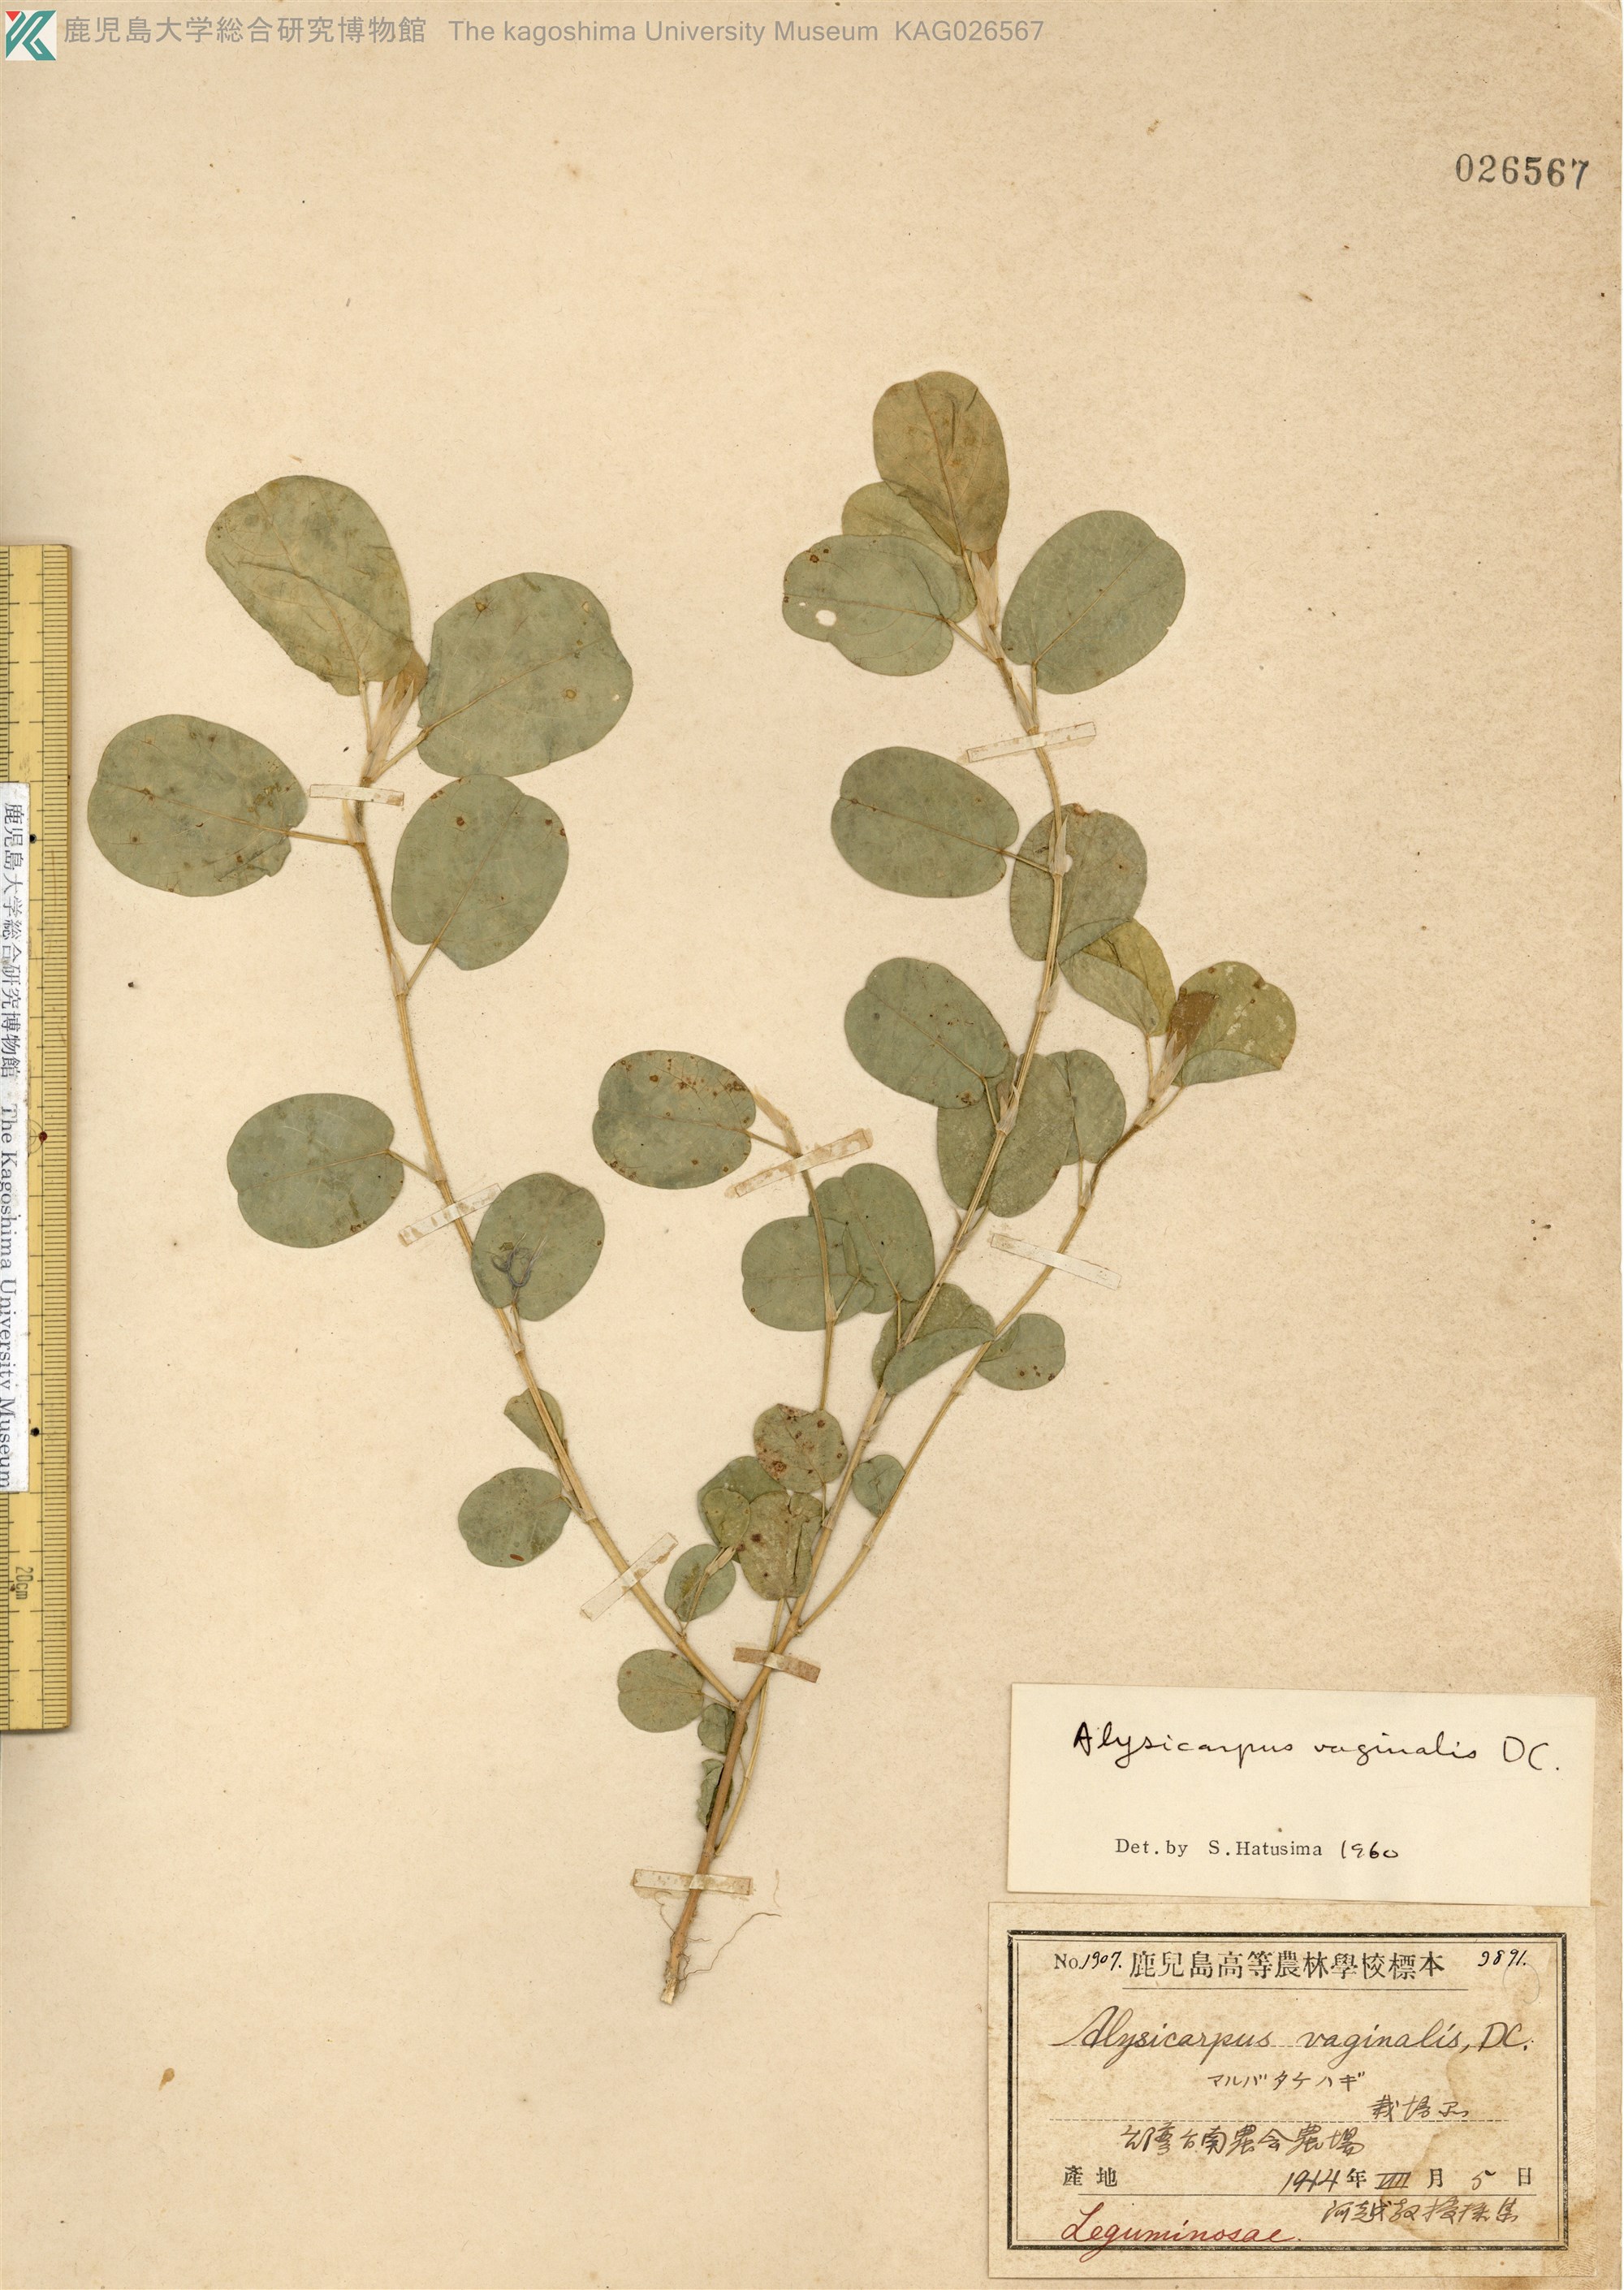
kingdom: Plantae
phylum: Tracheophyta
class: Magnoliopsida
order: Fabales
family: Fabaceae
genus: Alysicarpus
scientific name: Alysicarpus vaginalis
